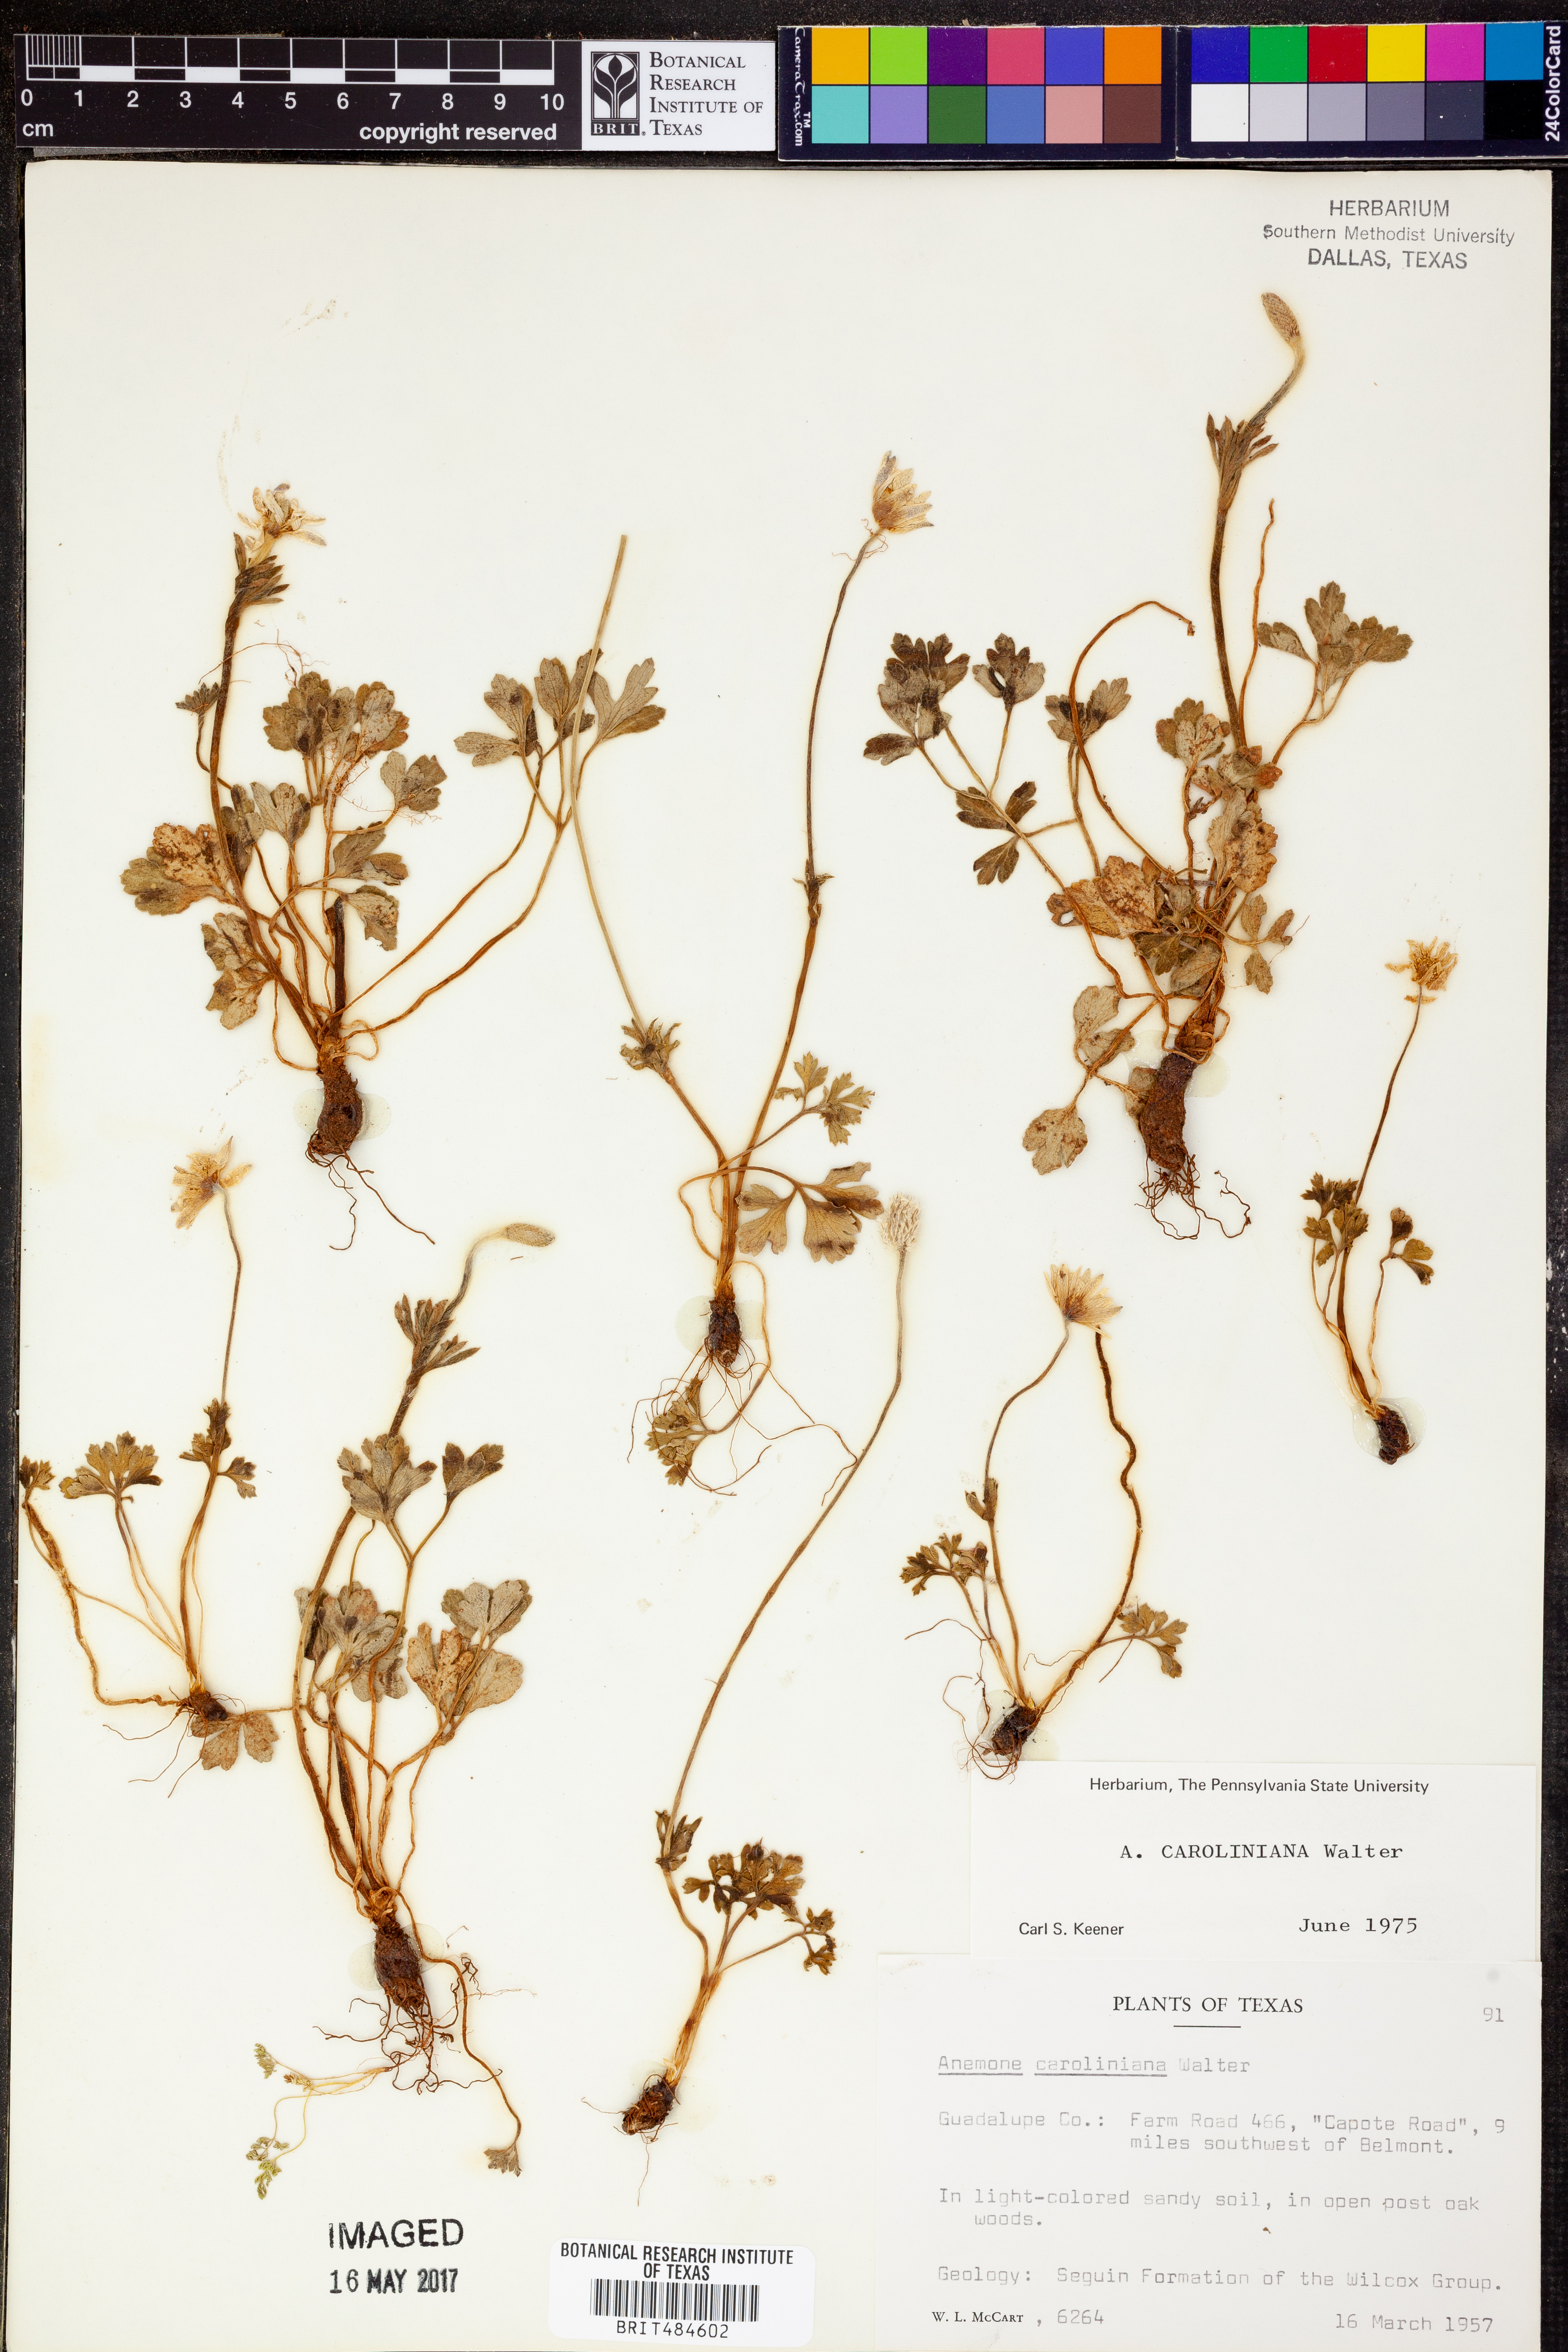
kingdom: Plantae
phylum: Tracheophyta
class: Magnoliopsida
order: Ranunculales
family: Ranunculaceae
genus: Anemone
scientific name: Anemone caroliniana
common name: Carolina anemone
